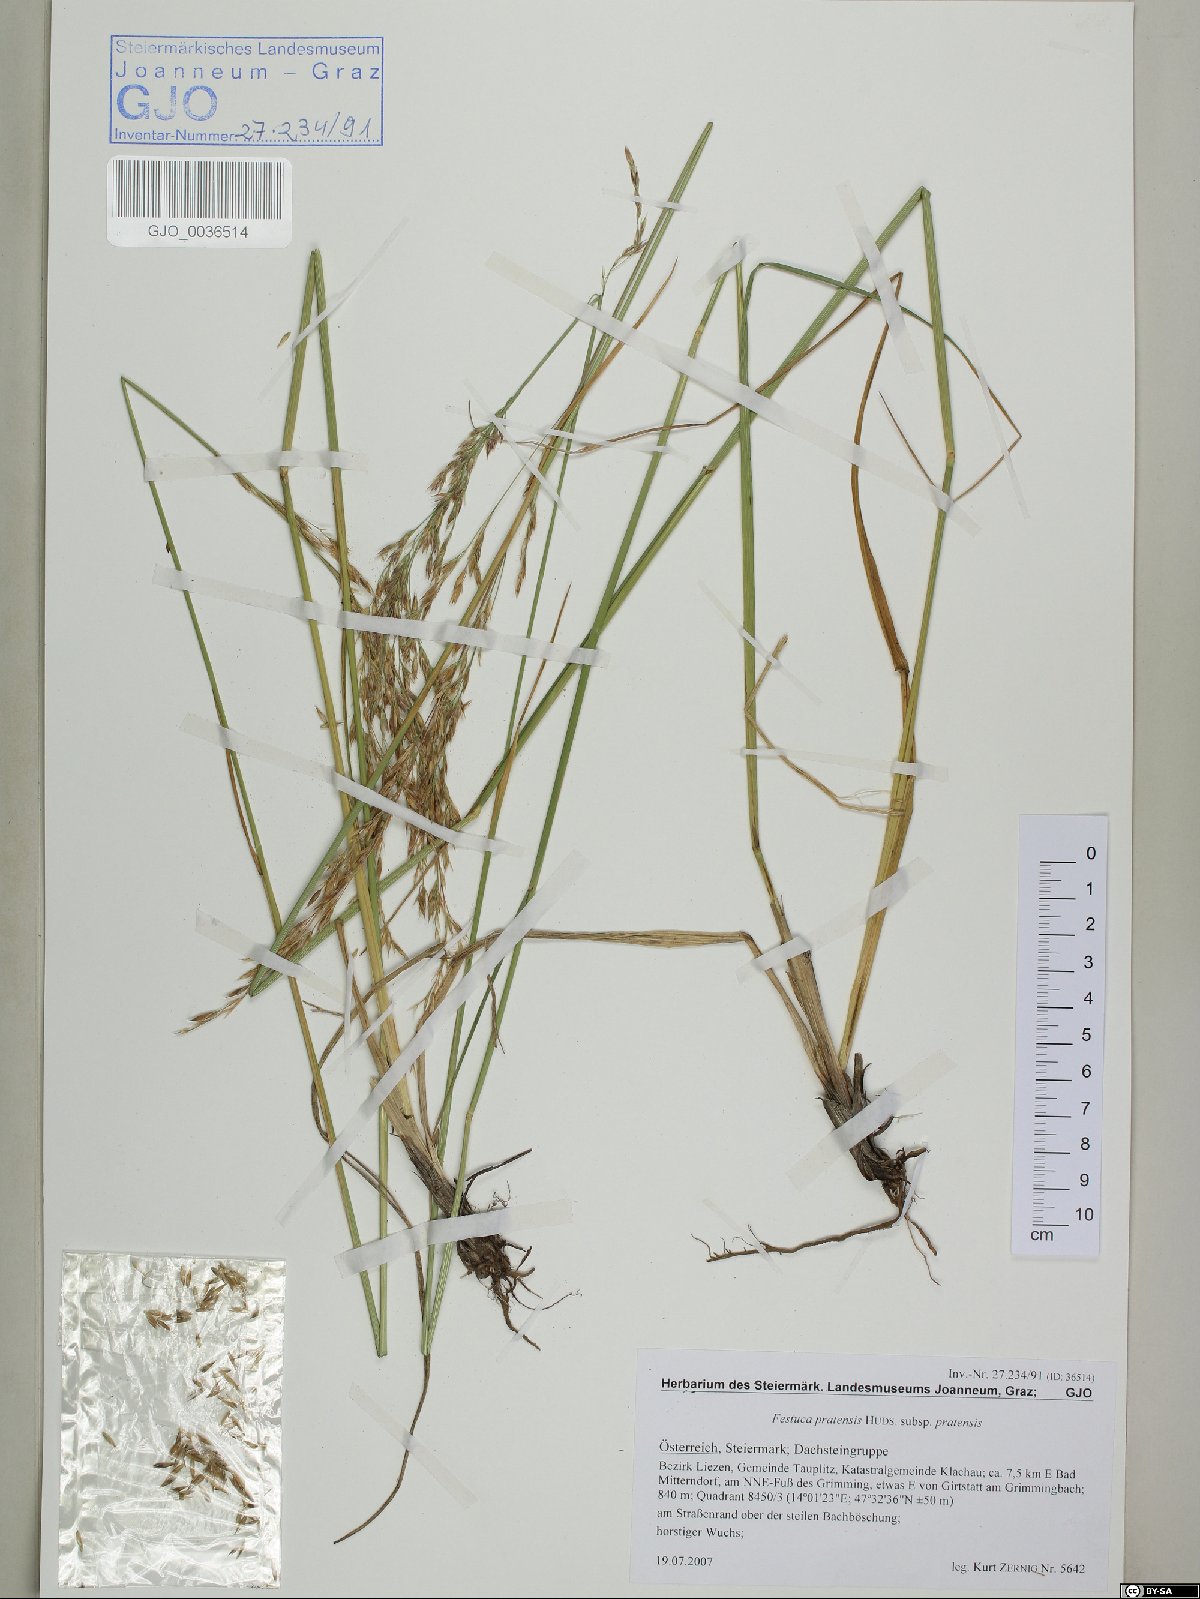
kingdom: Plantae
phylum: Tracheophyta
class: Liliopsida
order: Poales
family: Poaceae
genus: Lolium
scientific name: Lolium pratense
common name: Dover grass
